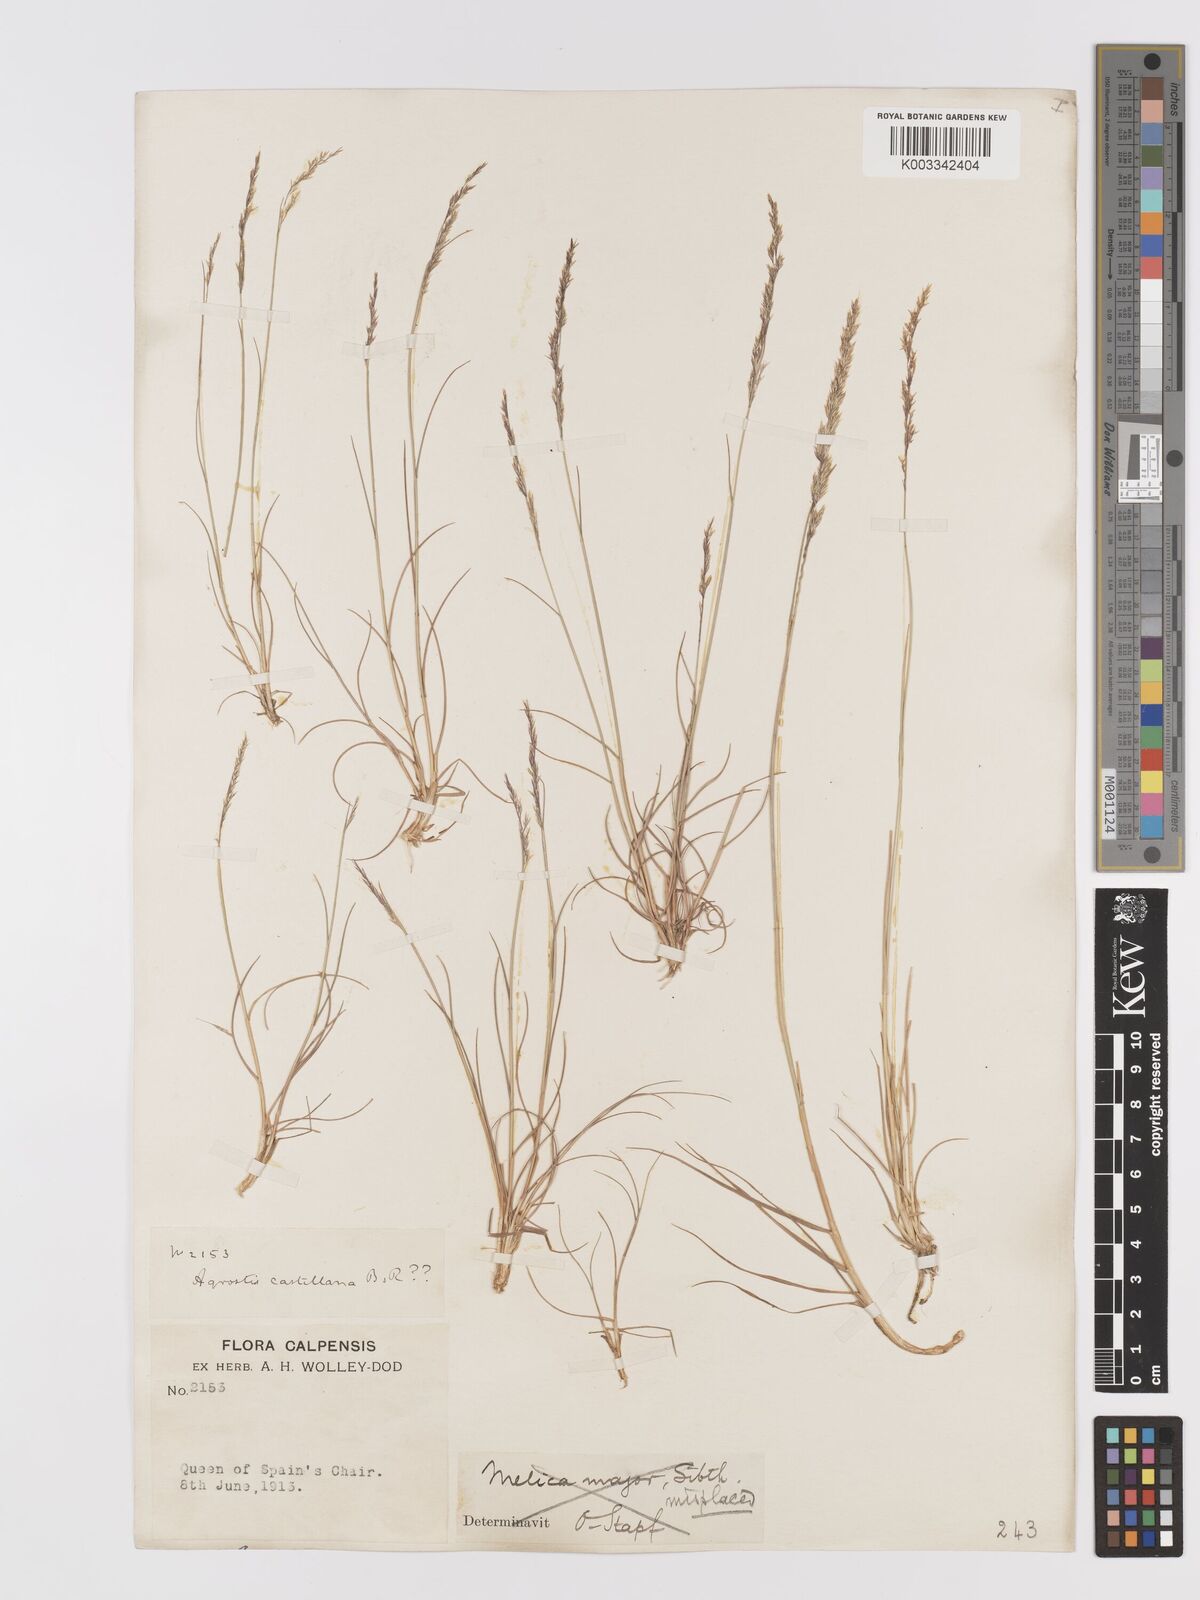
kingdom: Plantae
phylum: Tracheophyta
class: Liliopsida
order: Poales
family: Poaceae
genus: Agrostis
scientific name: Agrostis castellana
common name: Highland bent
